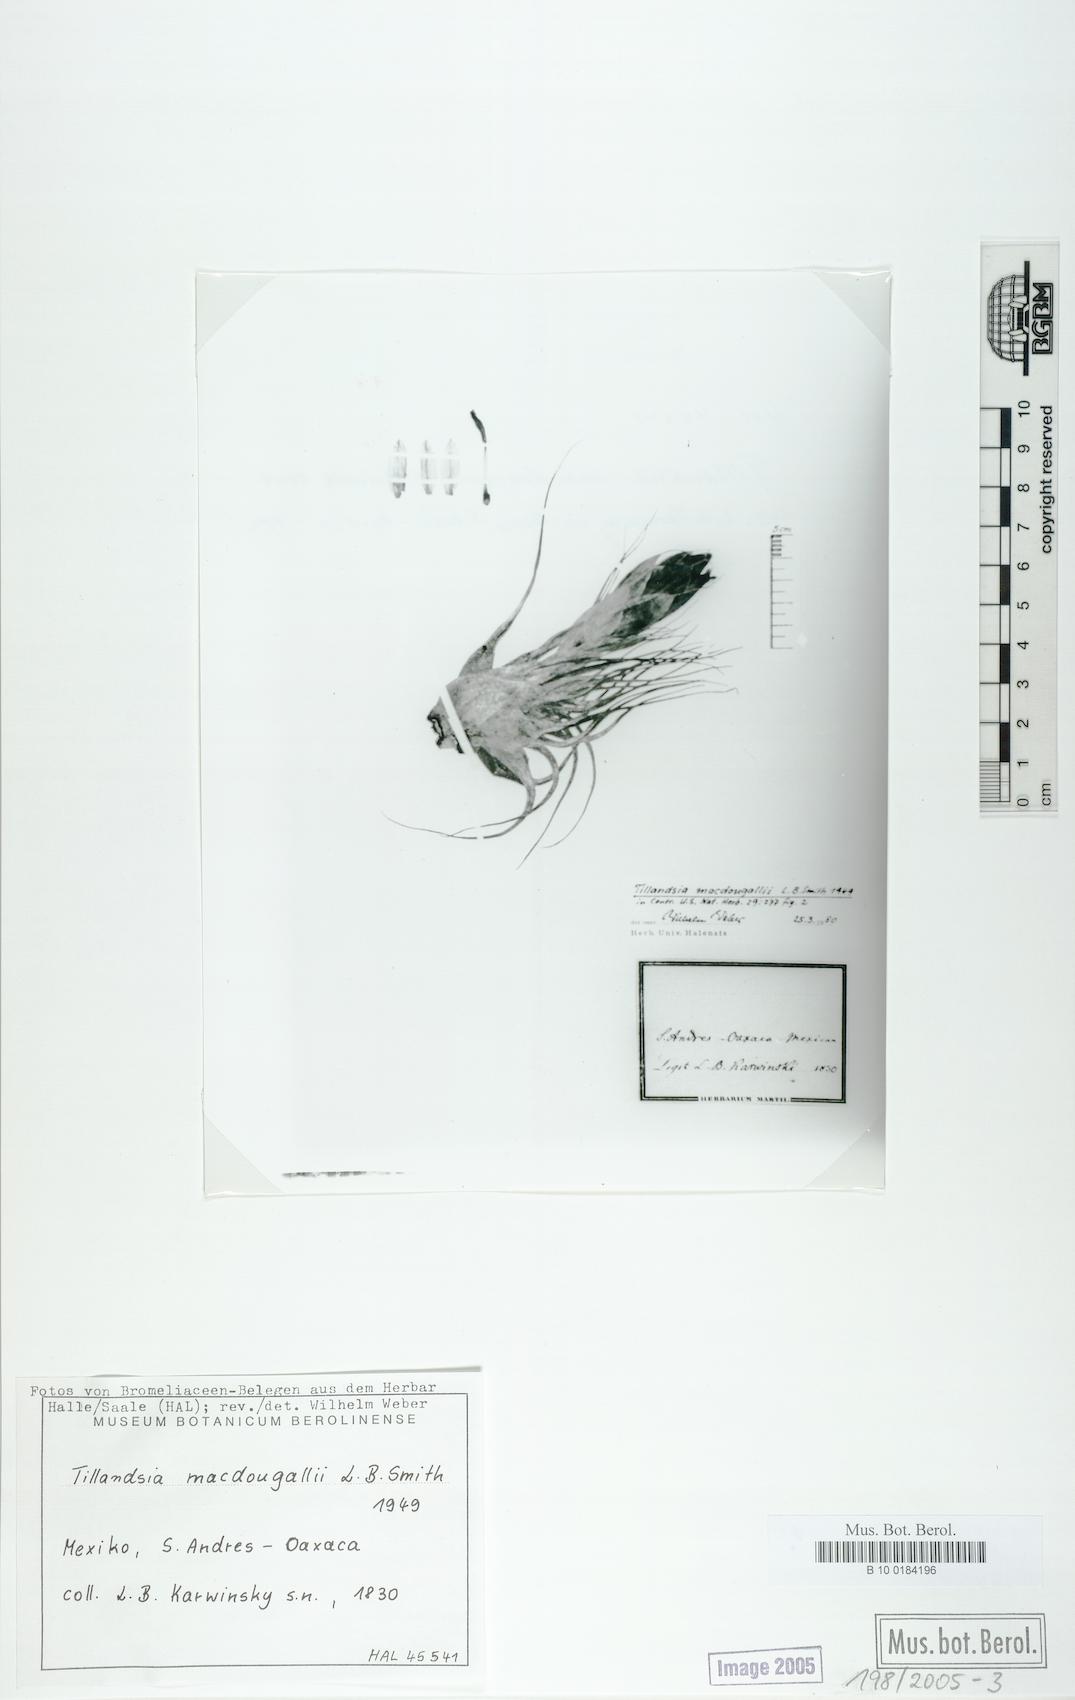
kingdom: Plantae
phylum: Tracheophyta
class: Liliopsida
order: Poales
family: Bromeliaceae
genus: Tillandsia
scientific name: Tillandsia macdougallii
